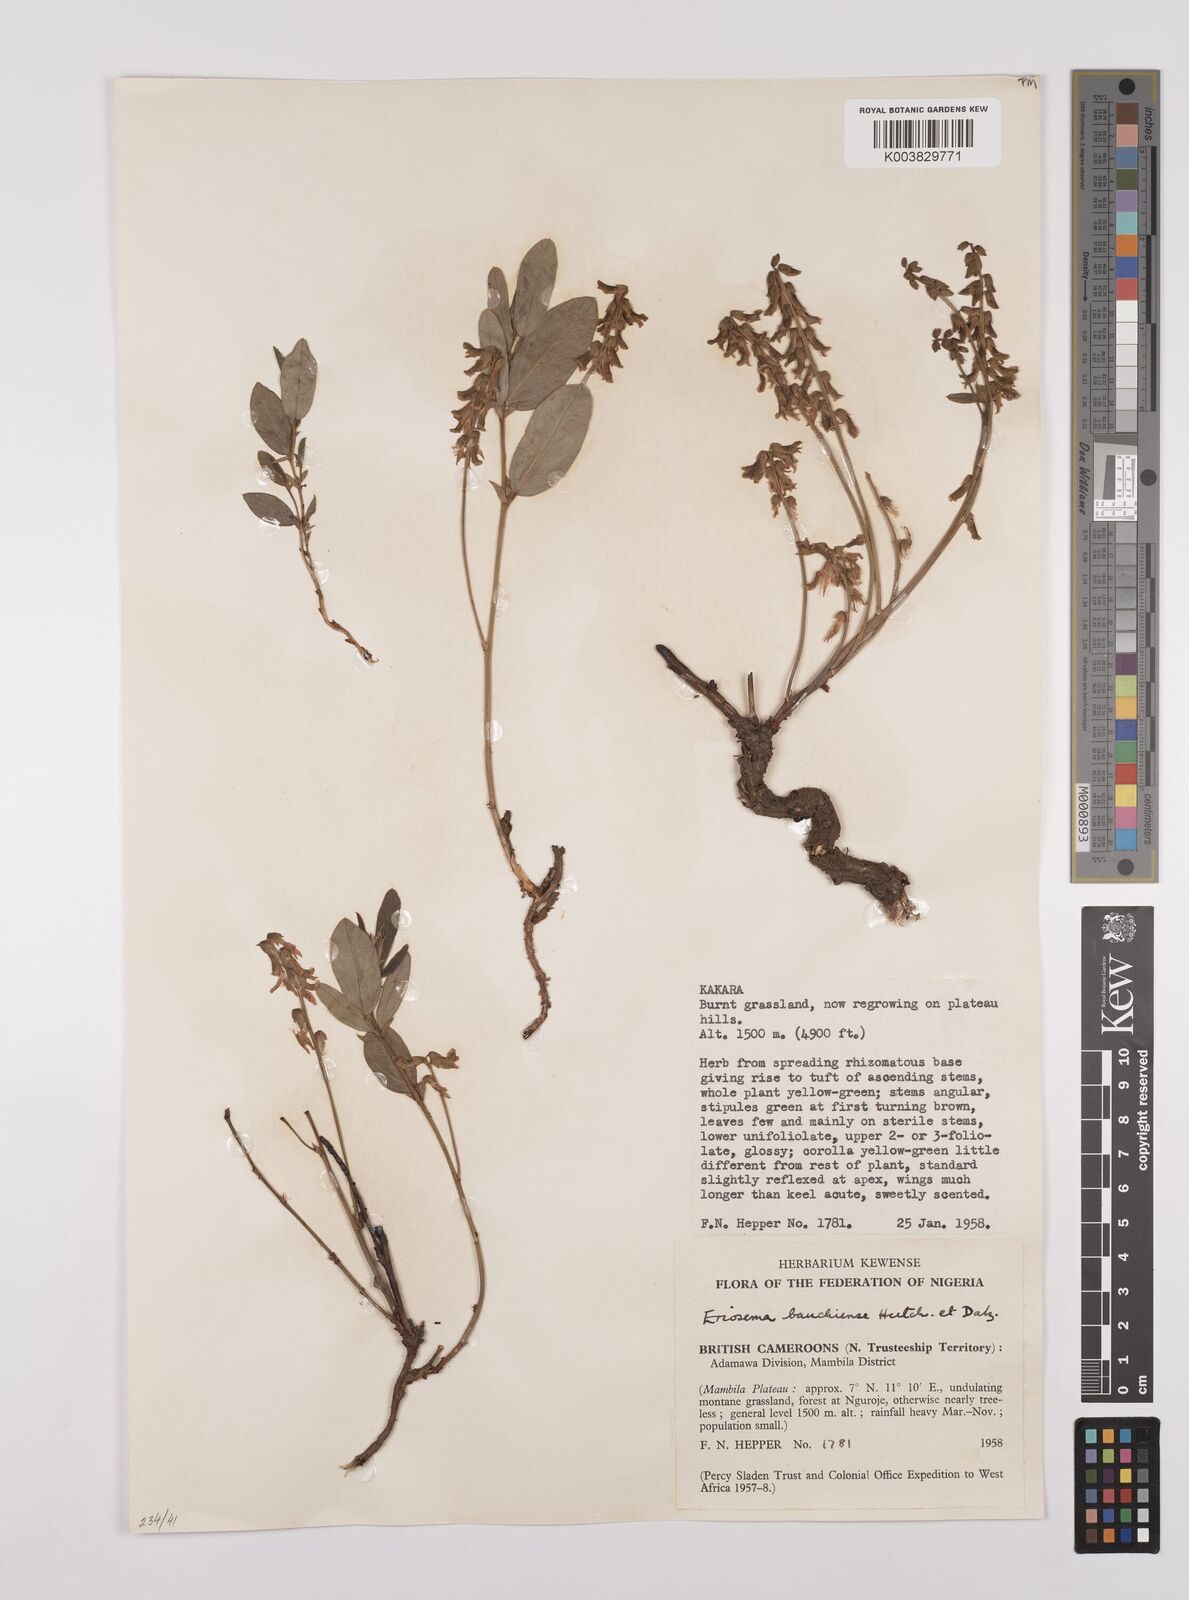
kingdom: Plantae
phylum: Tracheophyta
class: Magnoliopsida
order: Fabales
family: Fabaceae
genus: Eriosema
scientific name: Eriosema bauchiense
